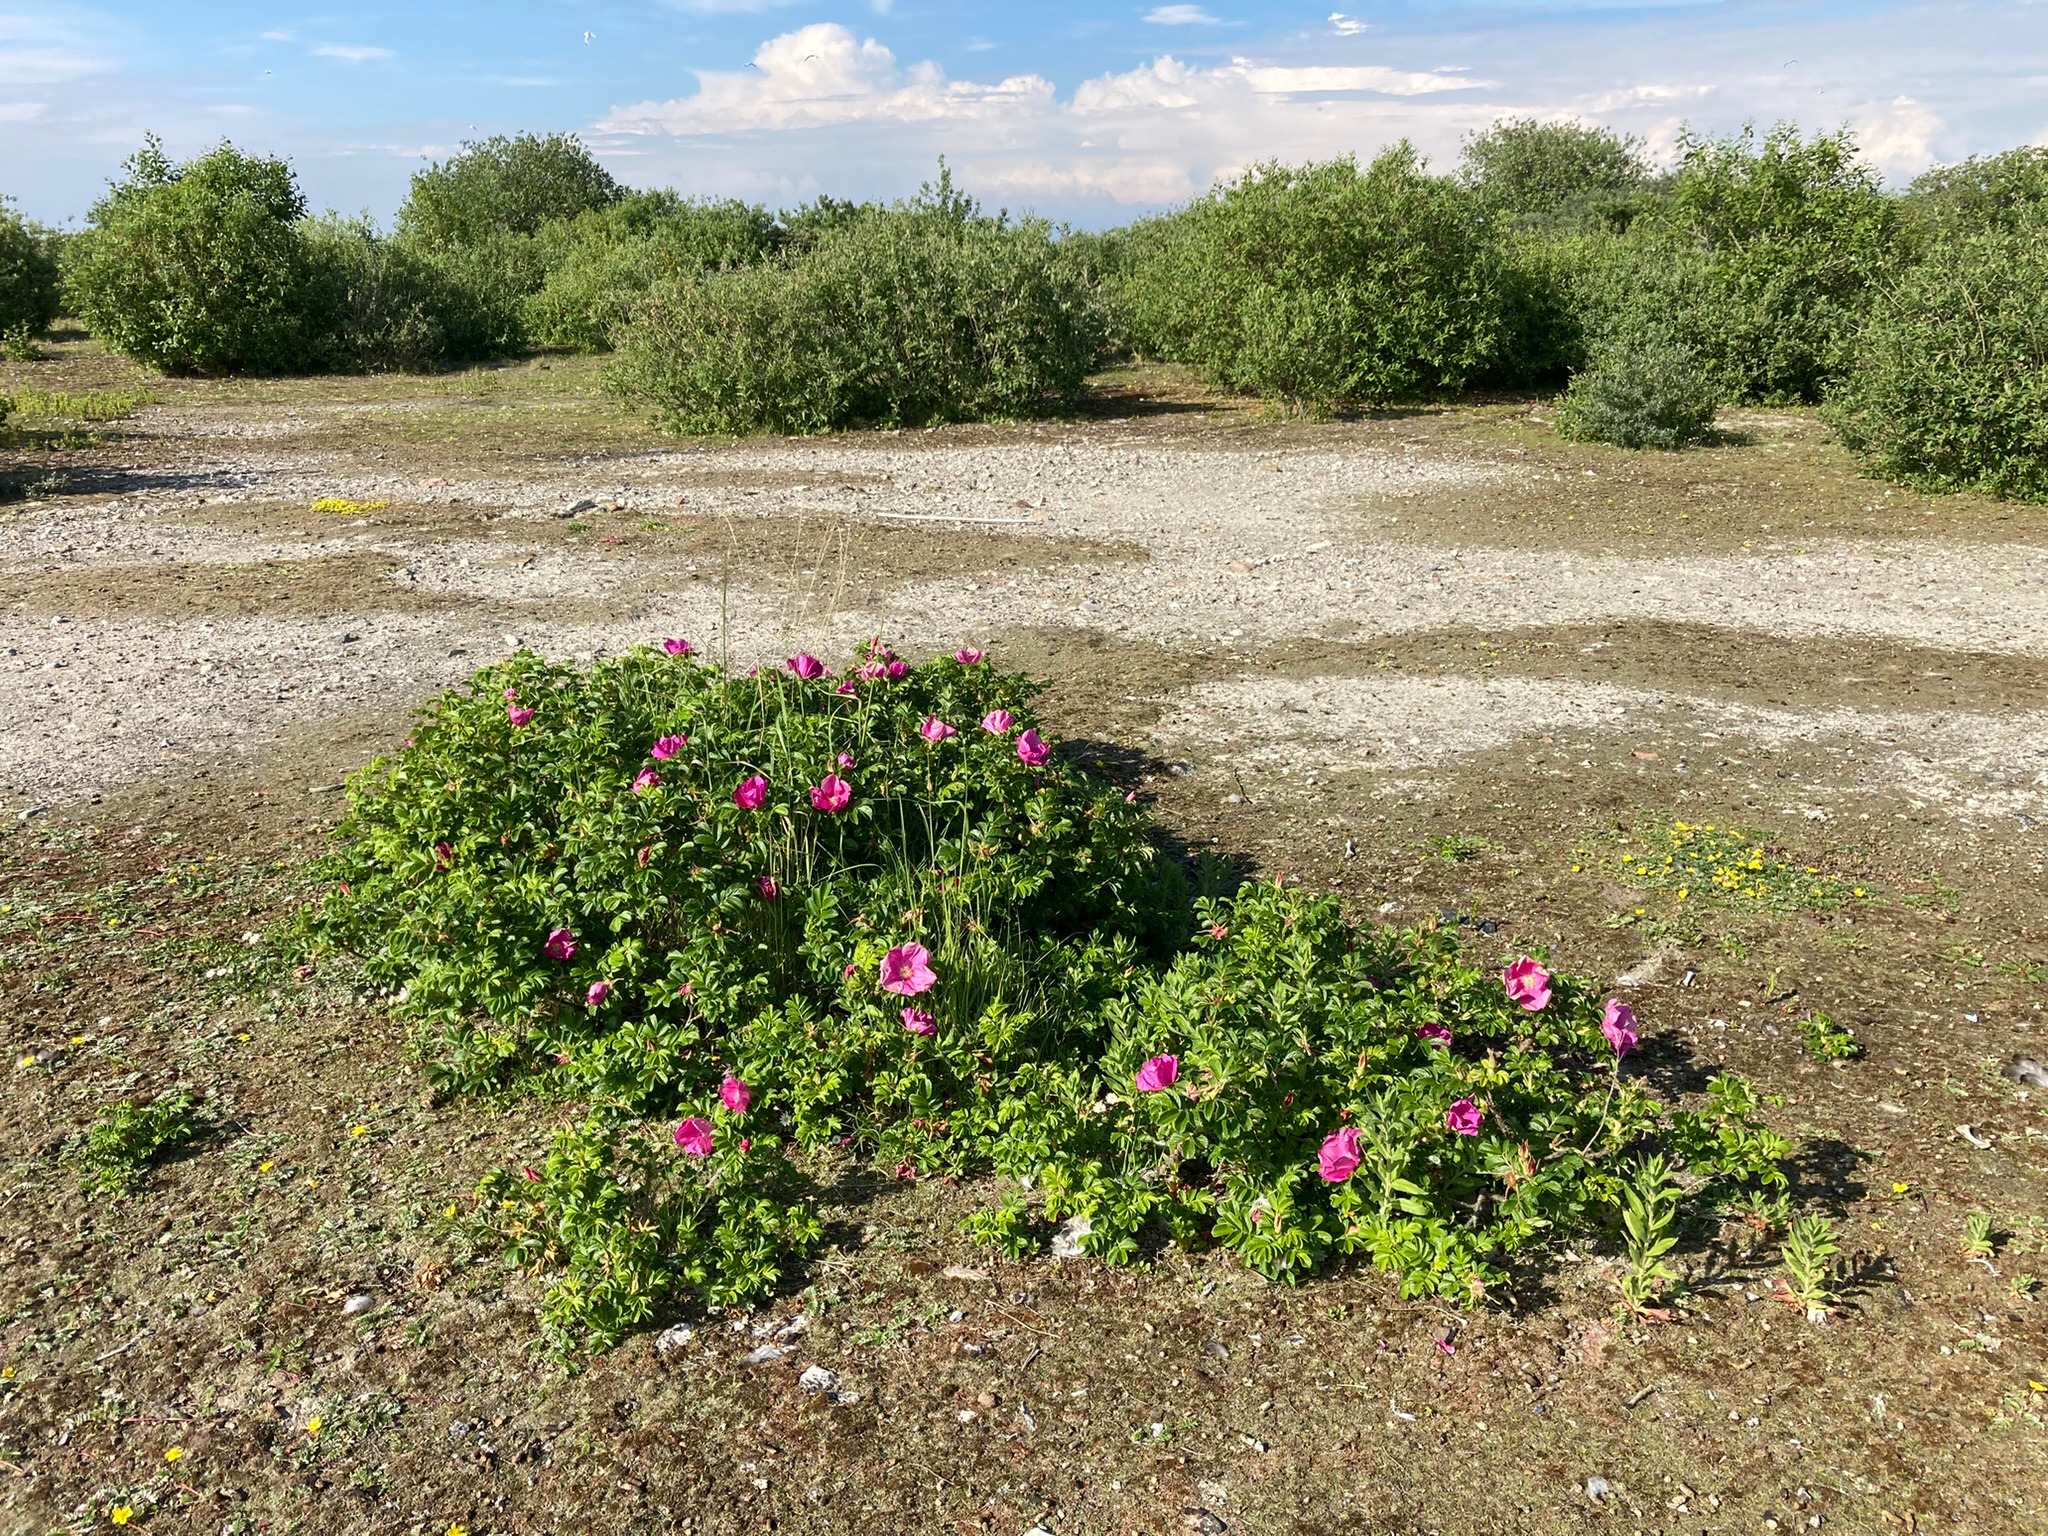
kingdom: Plantae
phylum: Tracheophyta
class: Magnoliopsida
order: Rosales
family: Rosaceae
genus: Rosa
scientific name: Rosa rugosa
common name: Rynket rose
